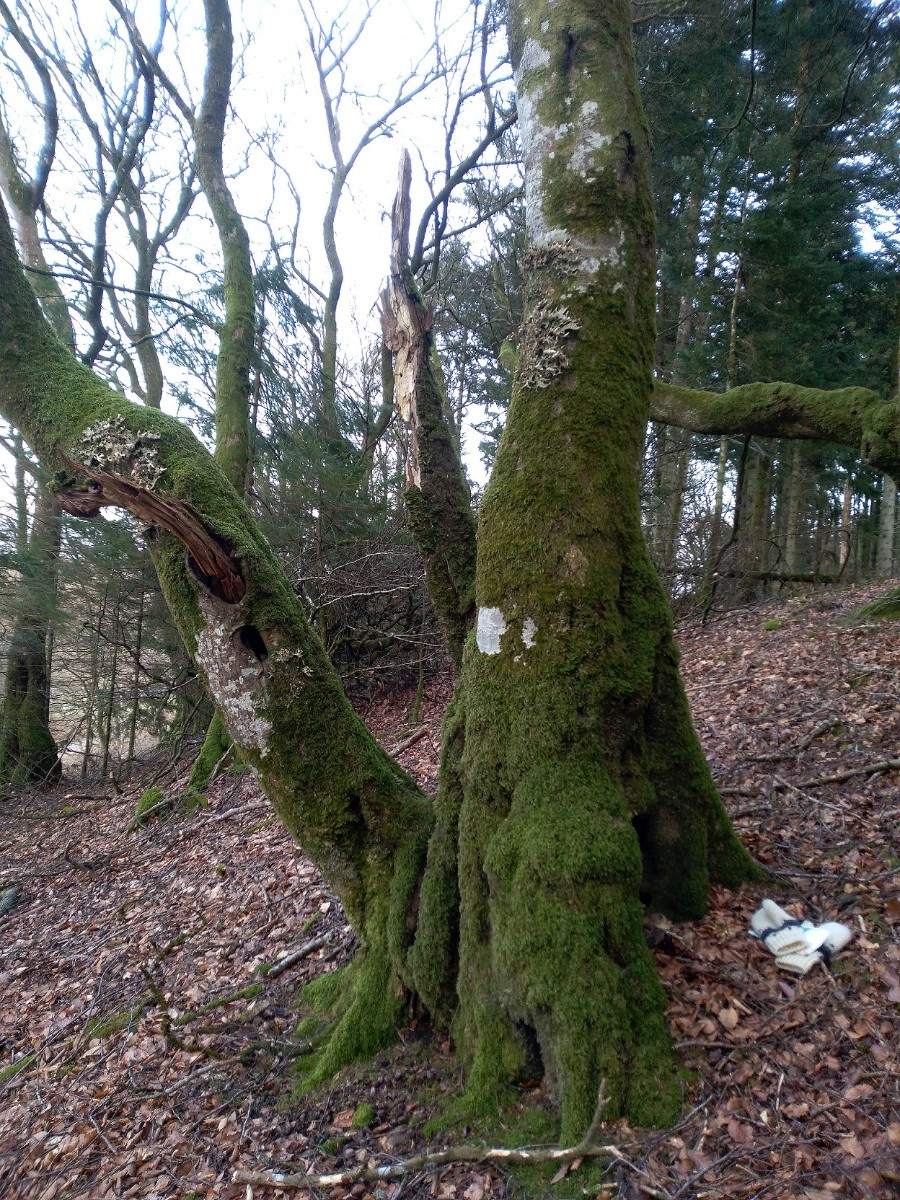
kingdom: Fungi
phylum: Ascomycota
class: Lecanoromycetes
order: Peltigerales
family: Lobariaceae
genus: Lobaria
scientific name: Lobaria pulmonaria
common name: almindelig lungelav
